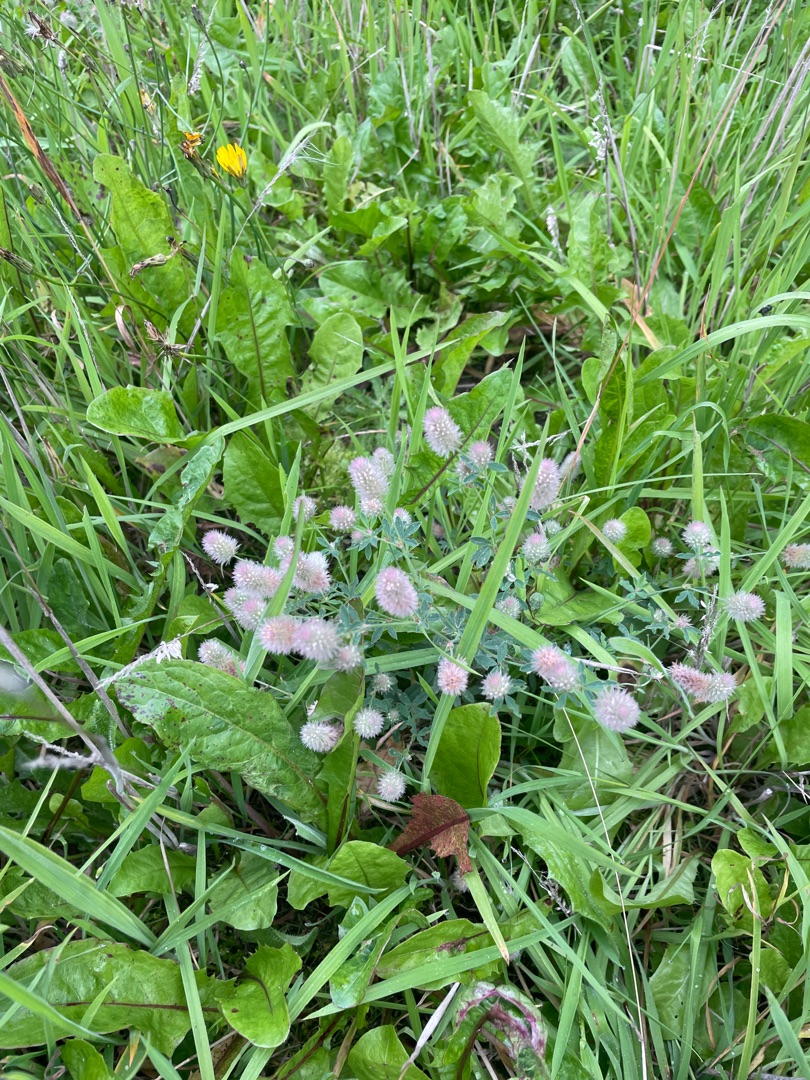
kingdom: Plantae
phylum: Tracheophyta
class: Magnoliopsida
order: Fabales
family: Fabaceae
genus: Trifolium
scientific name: Trifolium arvense
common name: Hare-kløver
